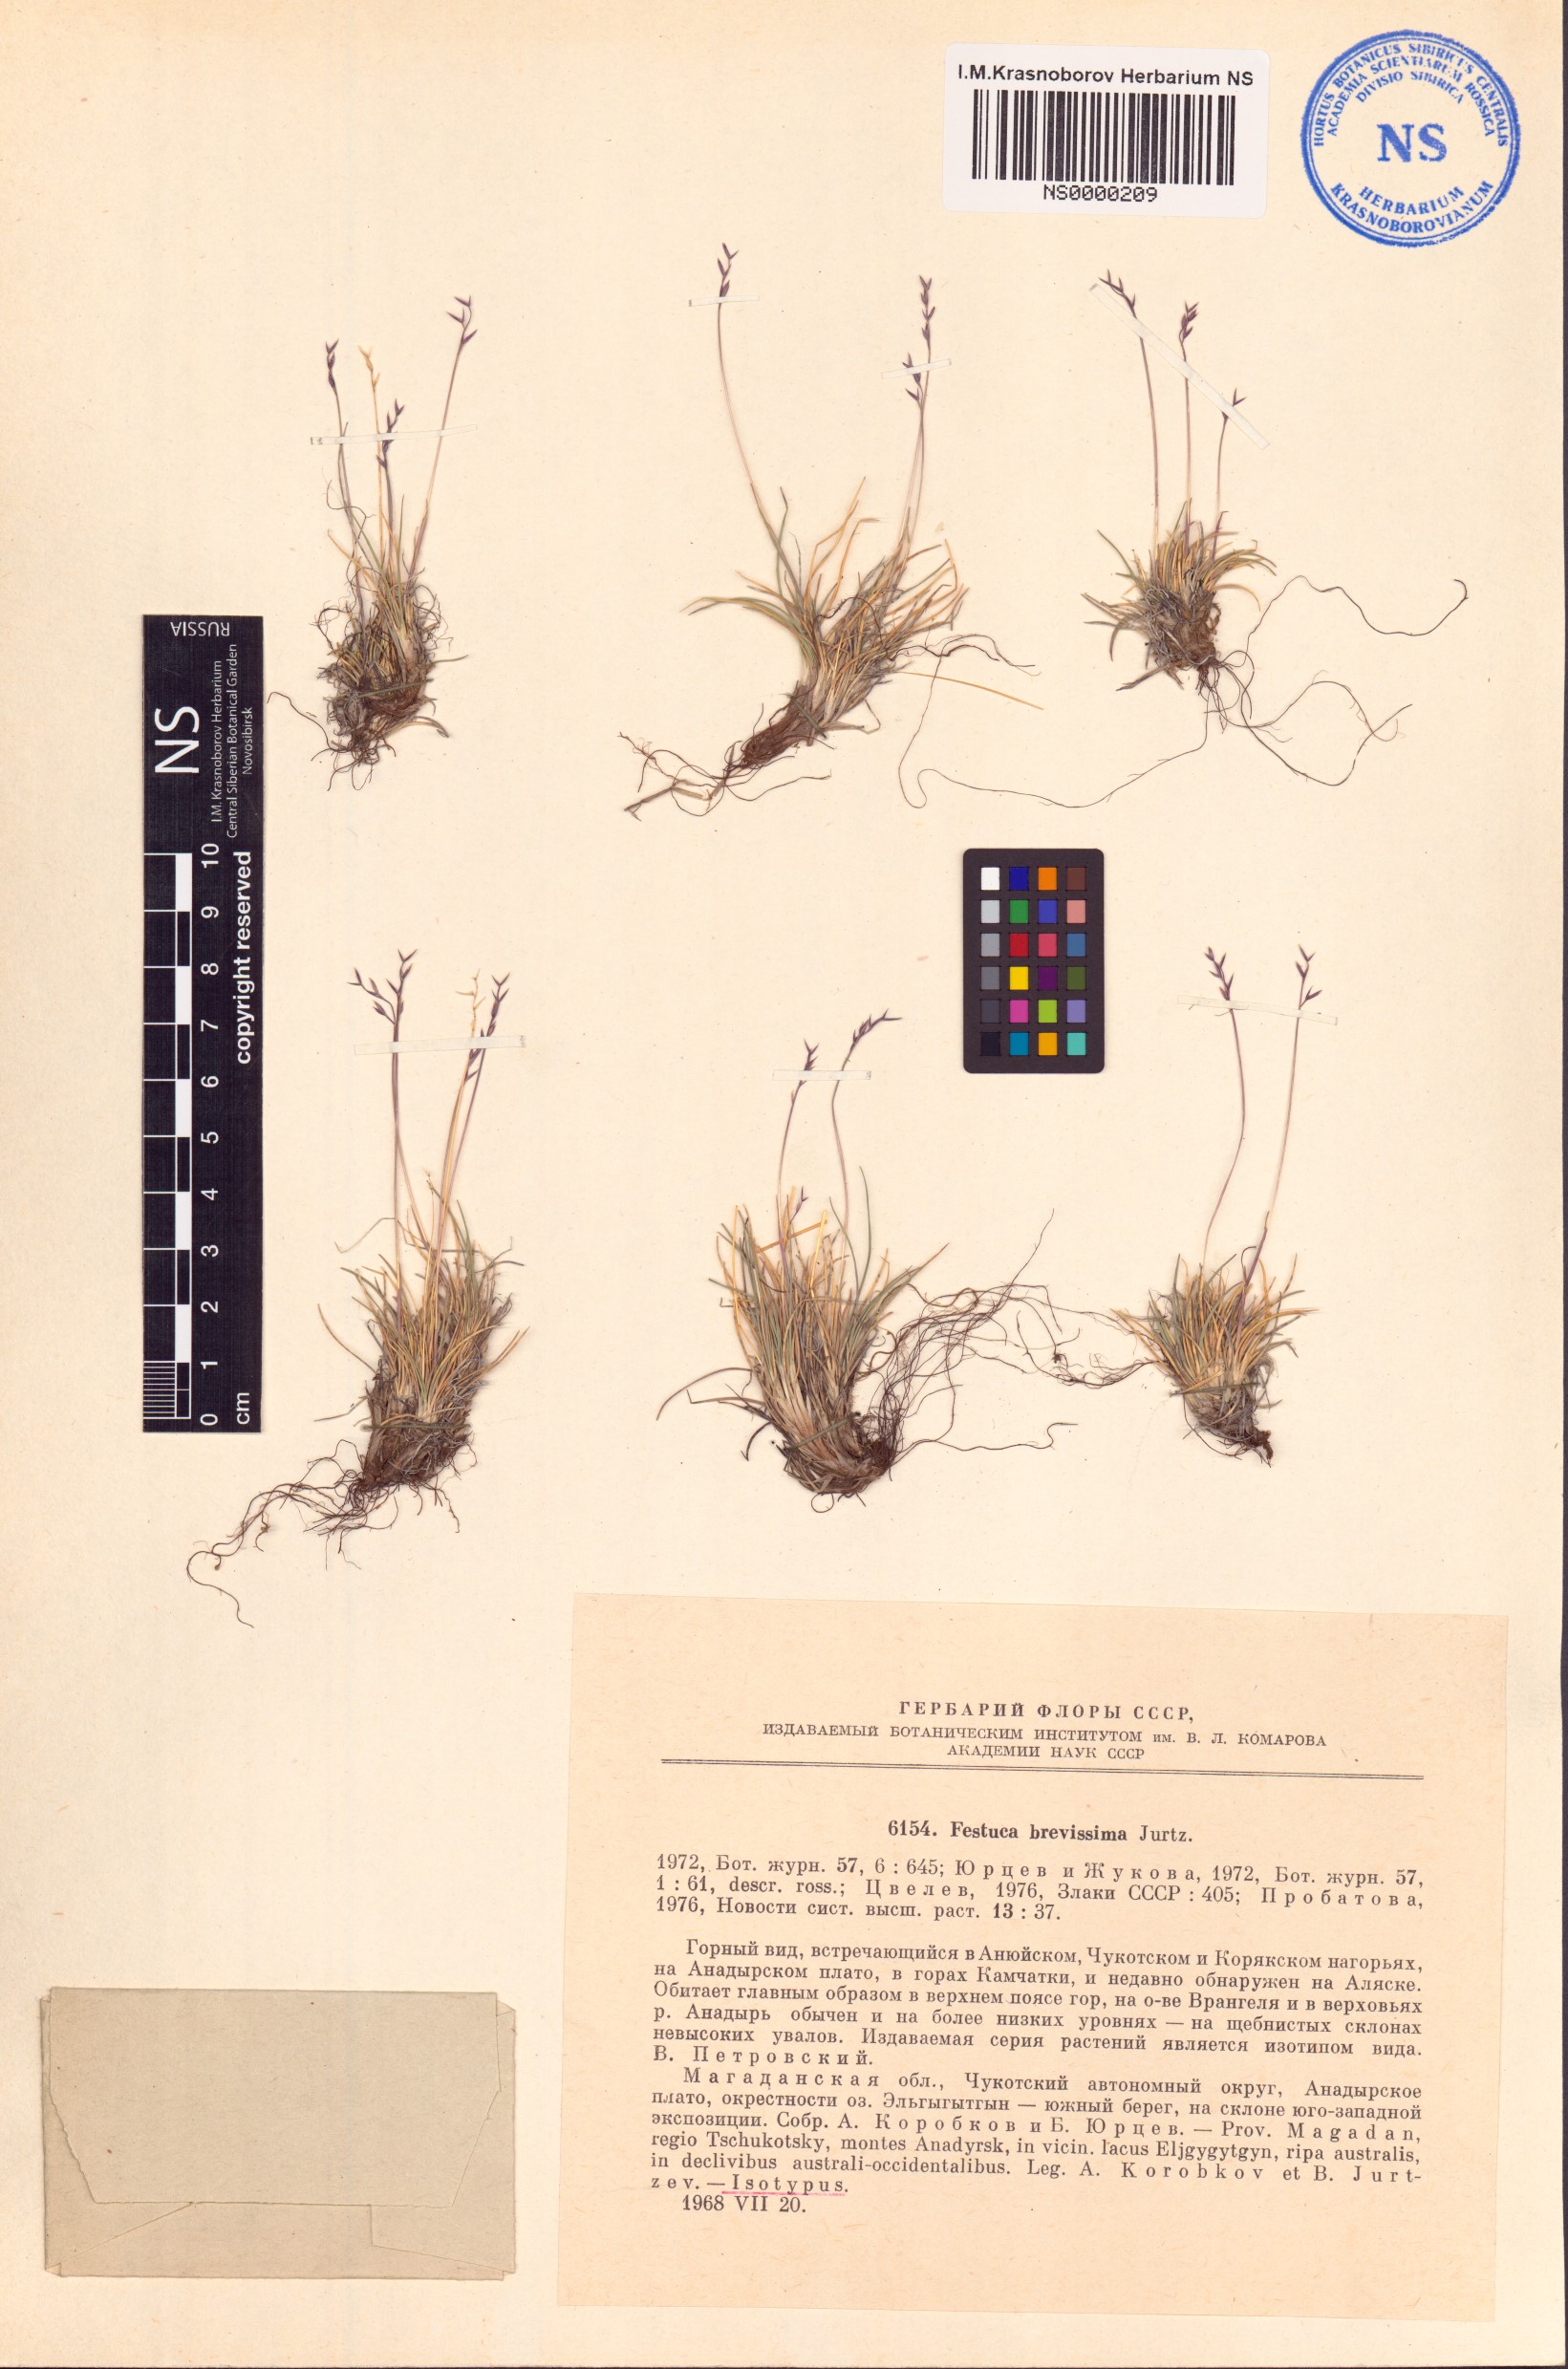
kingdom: Plantae
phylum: Tracheophyta
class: Liliopsida
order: Poales
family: Poaceae
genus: Festuca
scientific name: Festuca brevissima
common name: Alaska fescue
